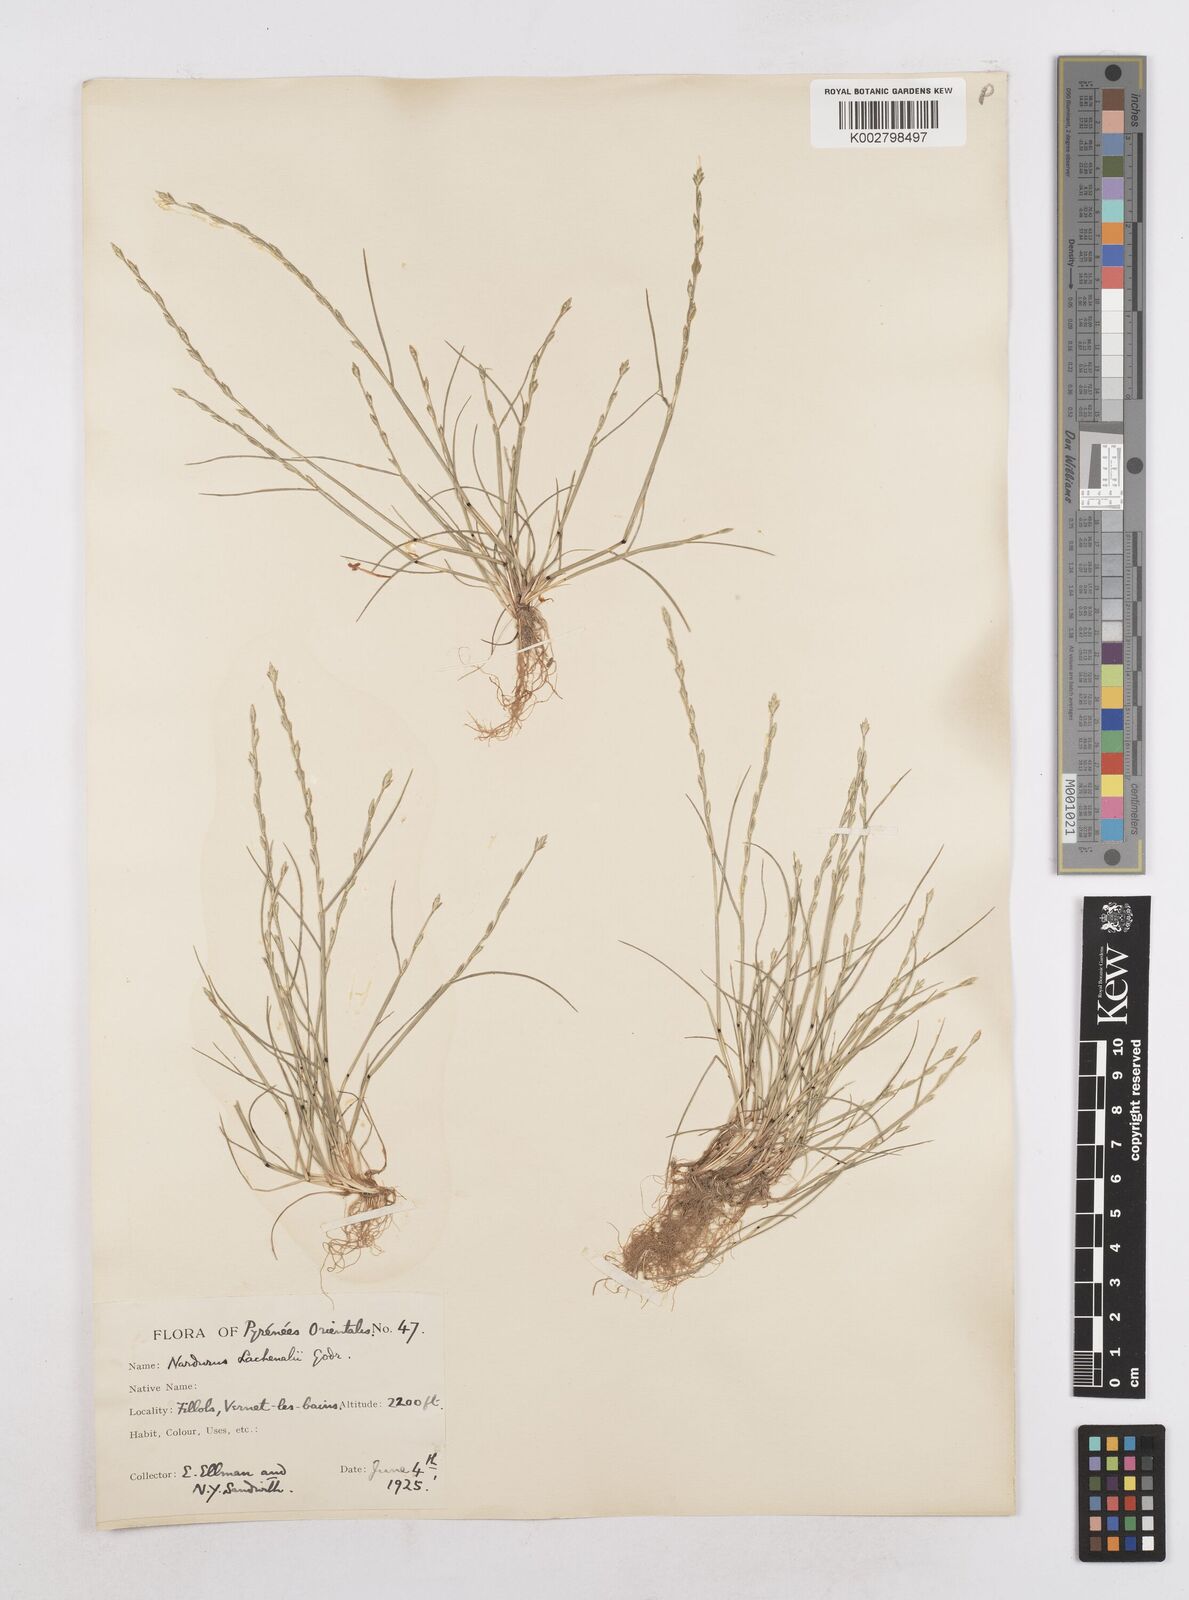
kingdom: Plantae
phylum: Tracheophyta
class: Liliopsida
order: Poales
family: Poaceae
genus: Festuca
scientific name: Festuca lachenalii
